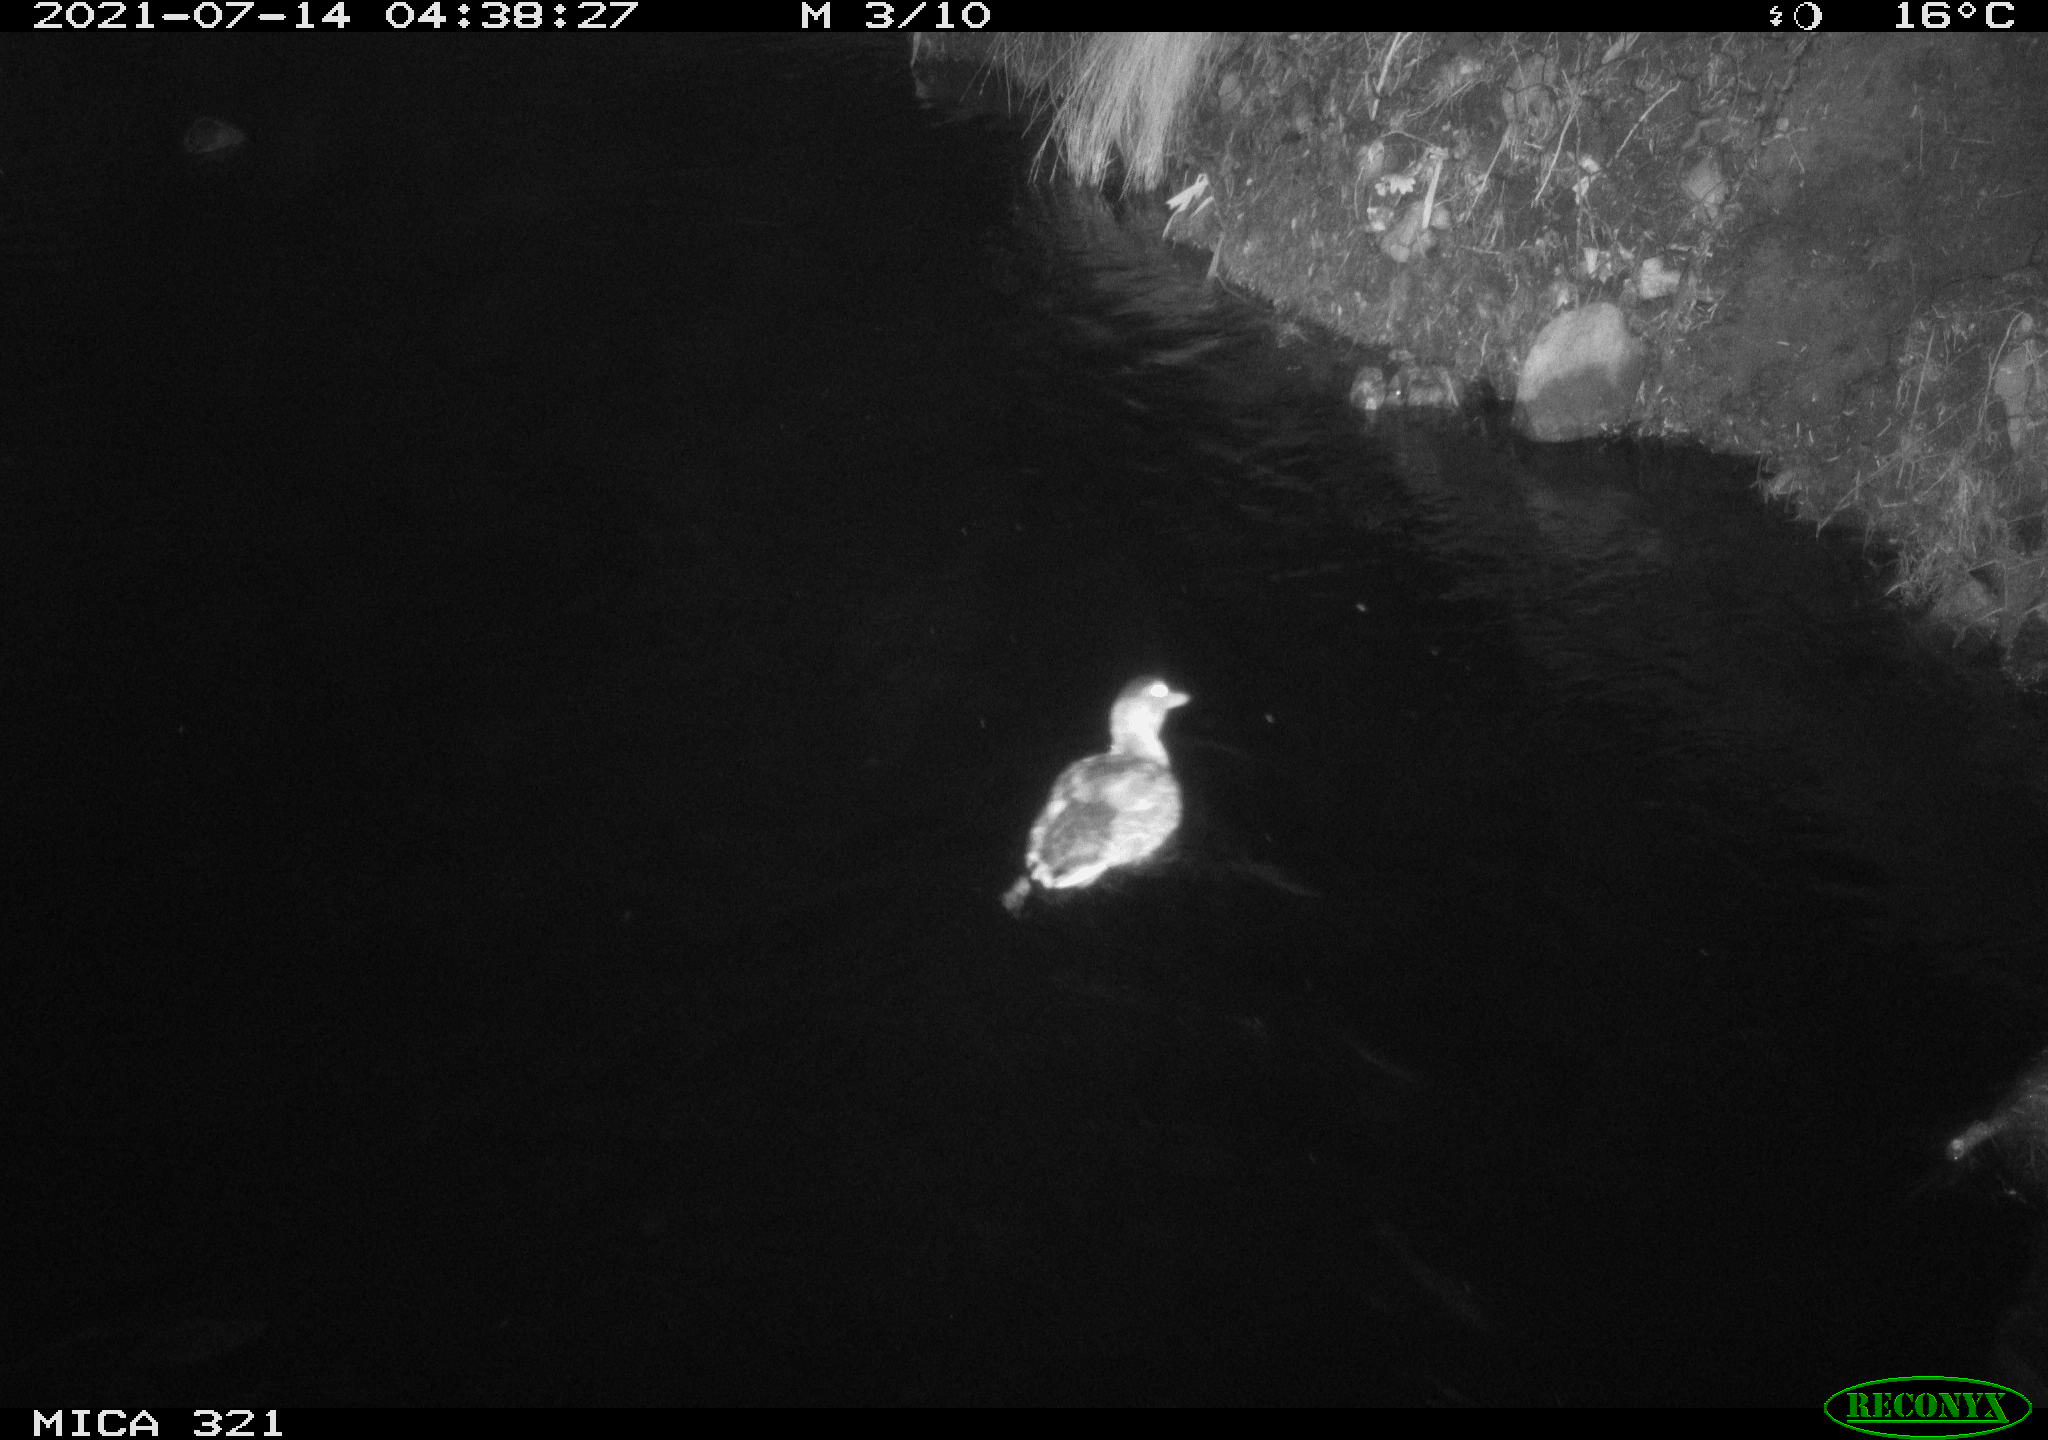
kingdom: Animalia
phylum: Chordata
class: Aves
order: Anseriformes
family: Anatidae
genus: Anas
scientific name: Anas platyrhynchos
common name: Mallard
